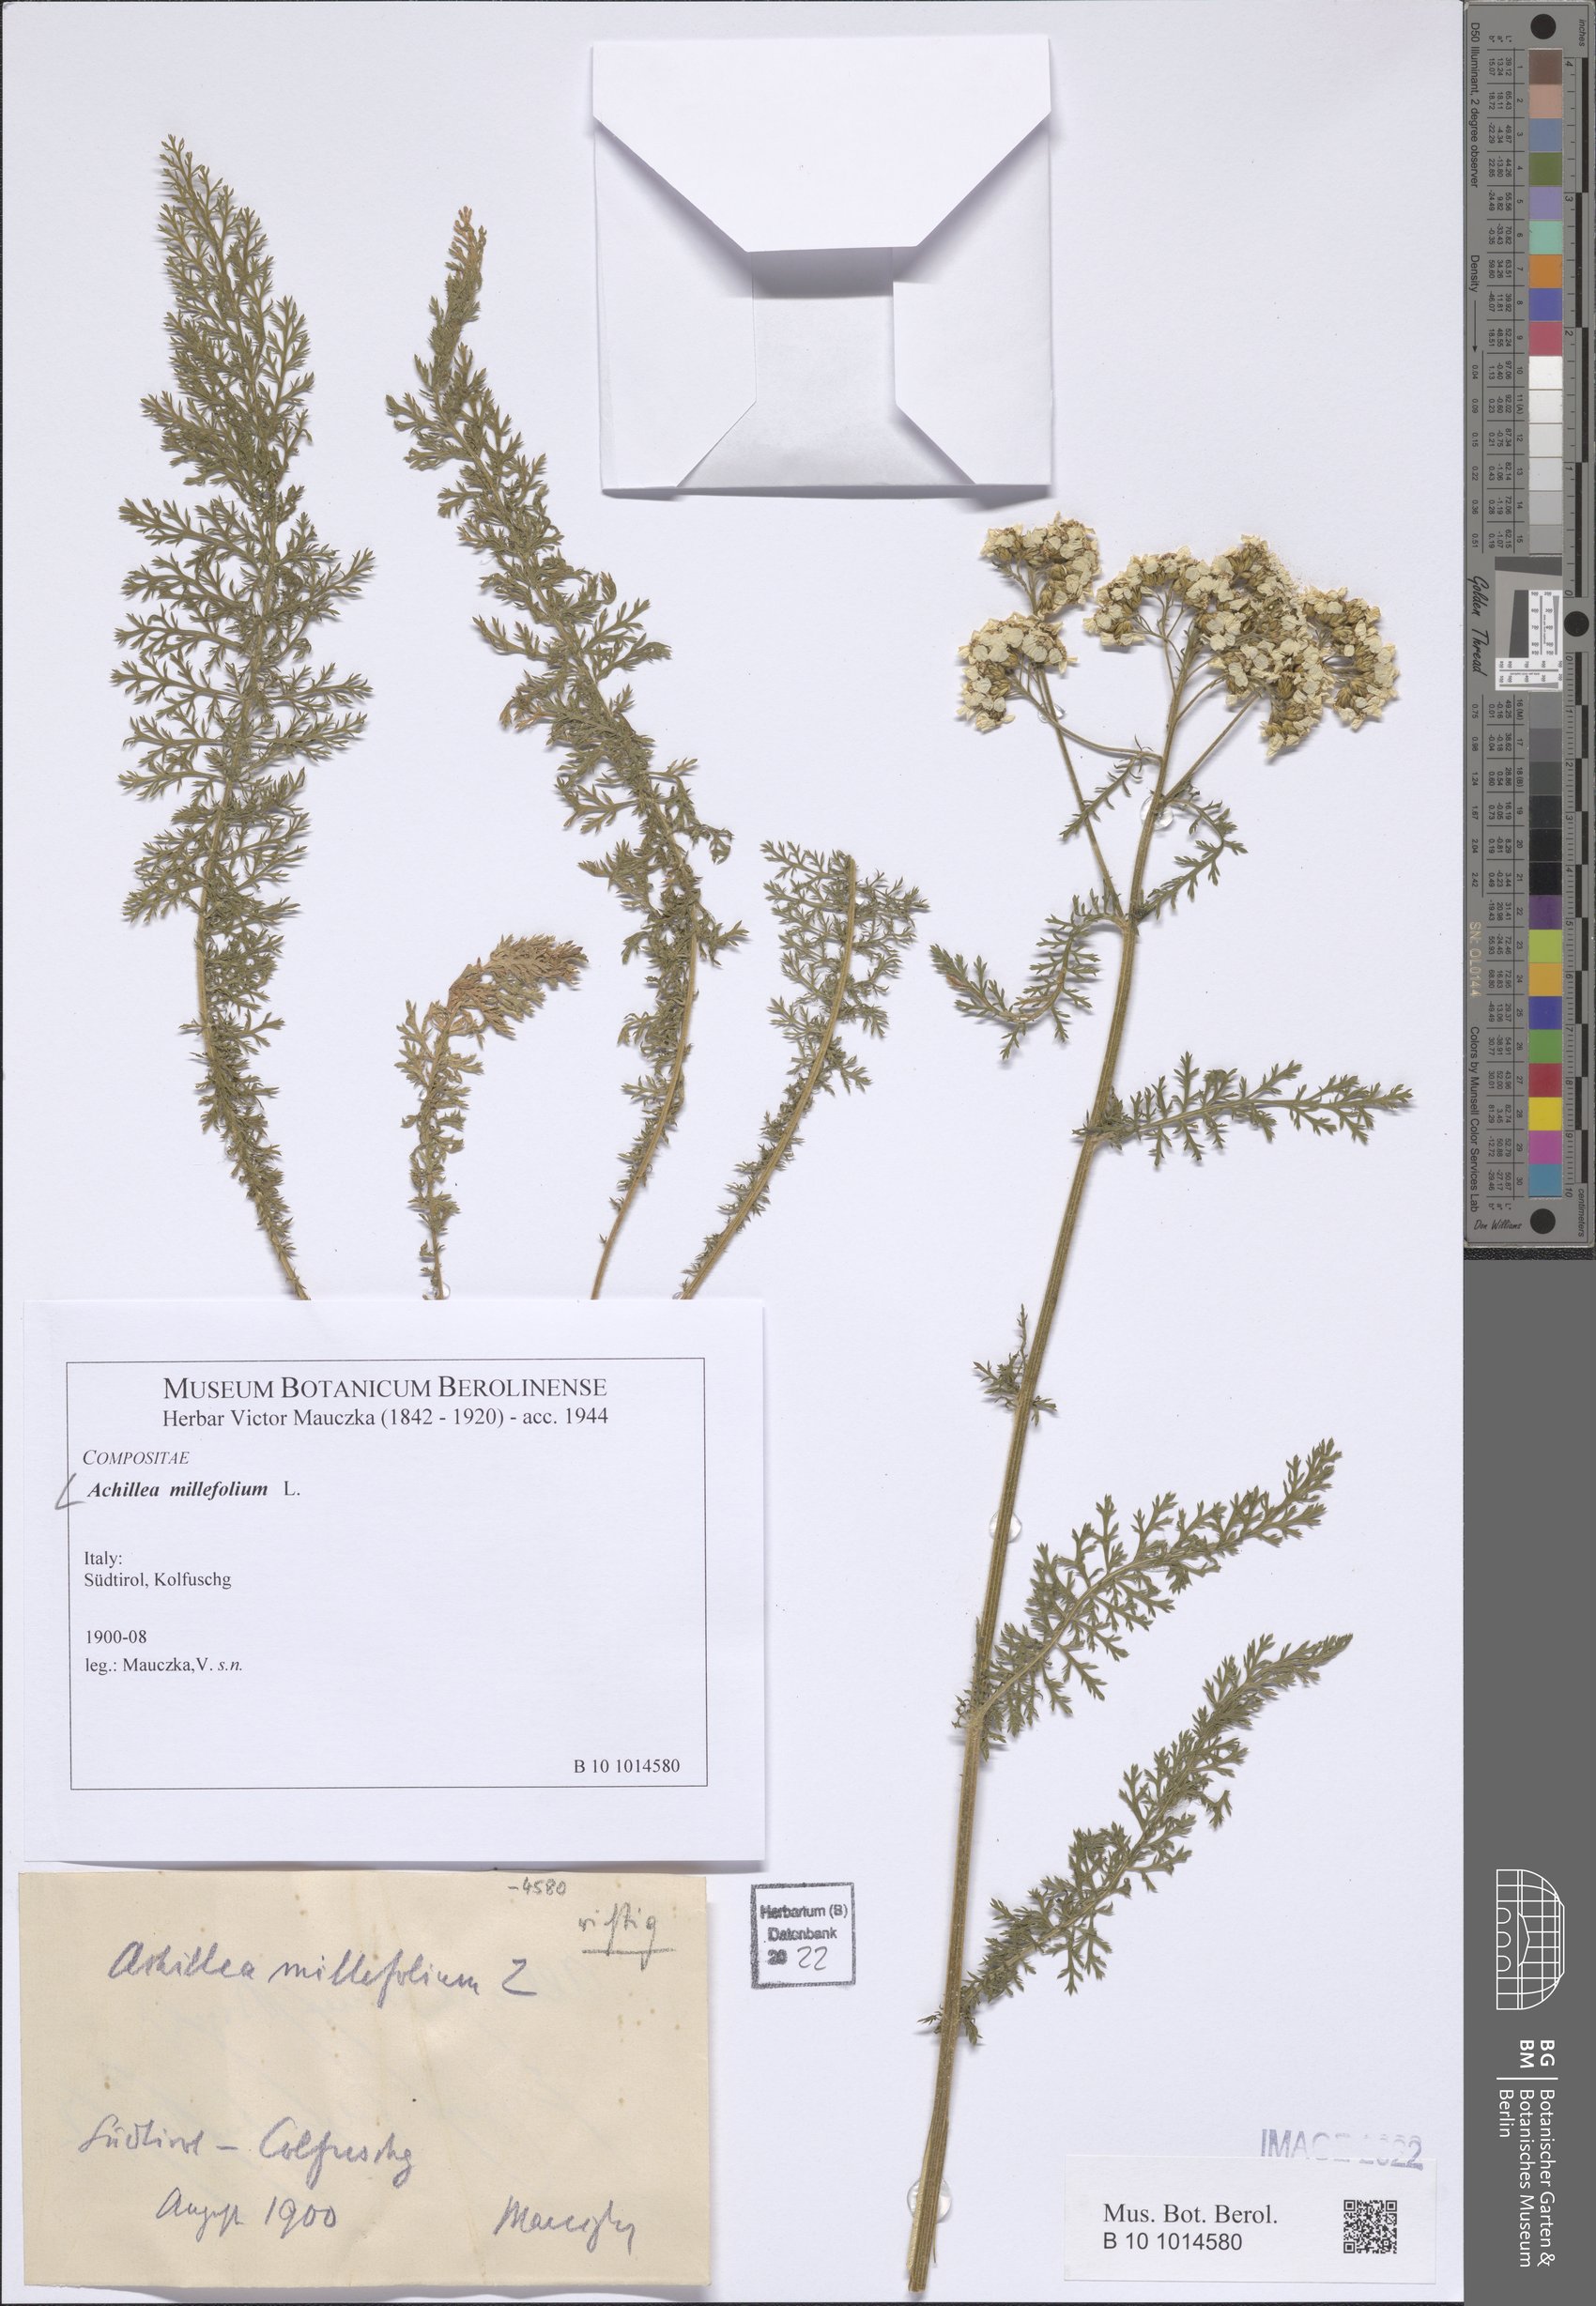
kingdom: Plantae
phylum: Tracheophyta
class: Magnoliopsida
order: Asterales
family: Asteraceae
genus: Achillea
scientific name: Achillea millefolium
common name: Yarrow
